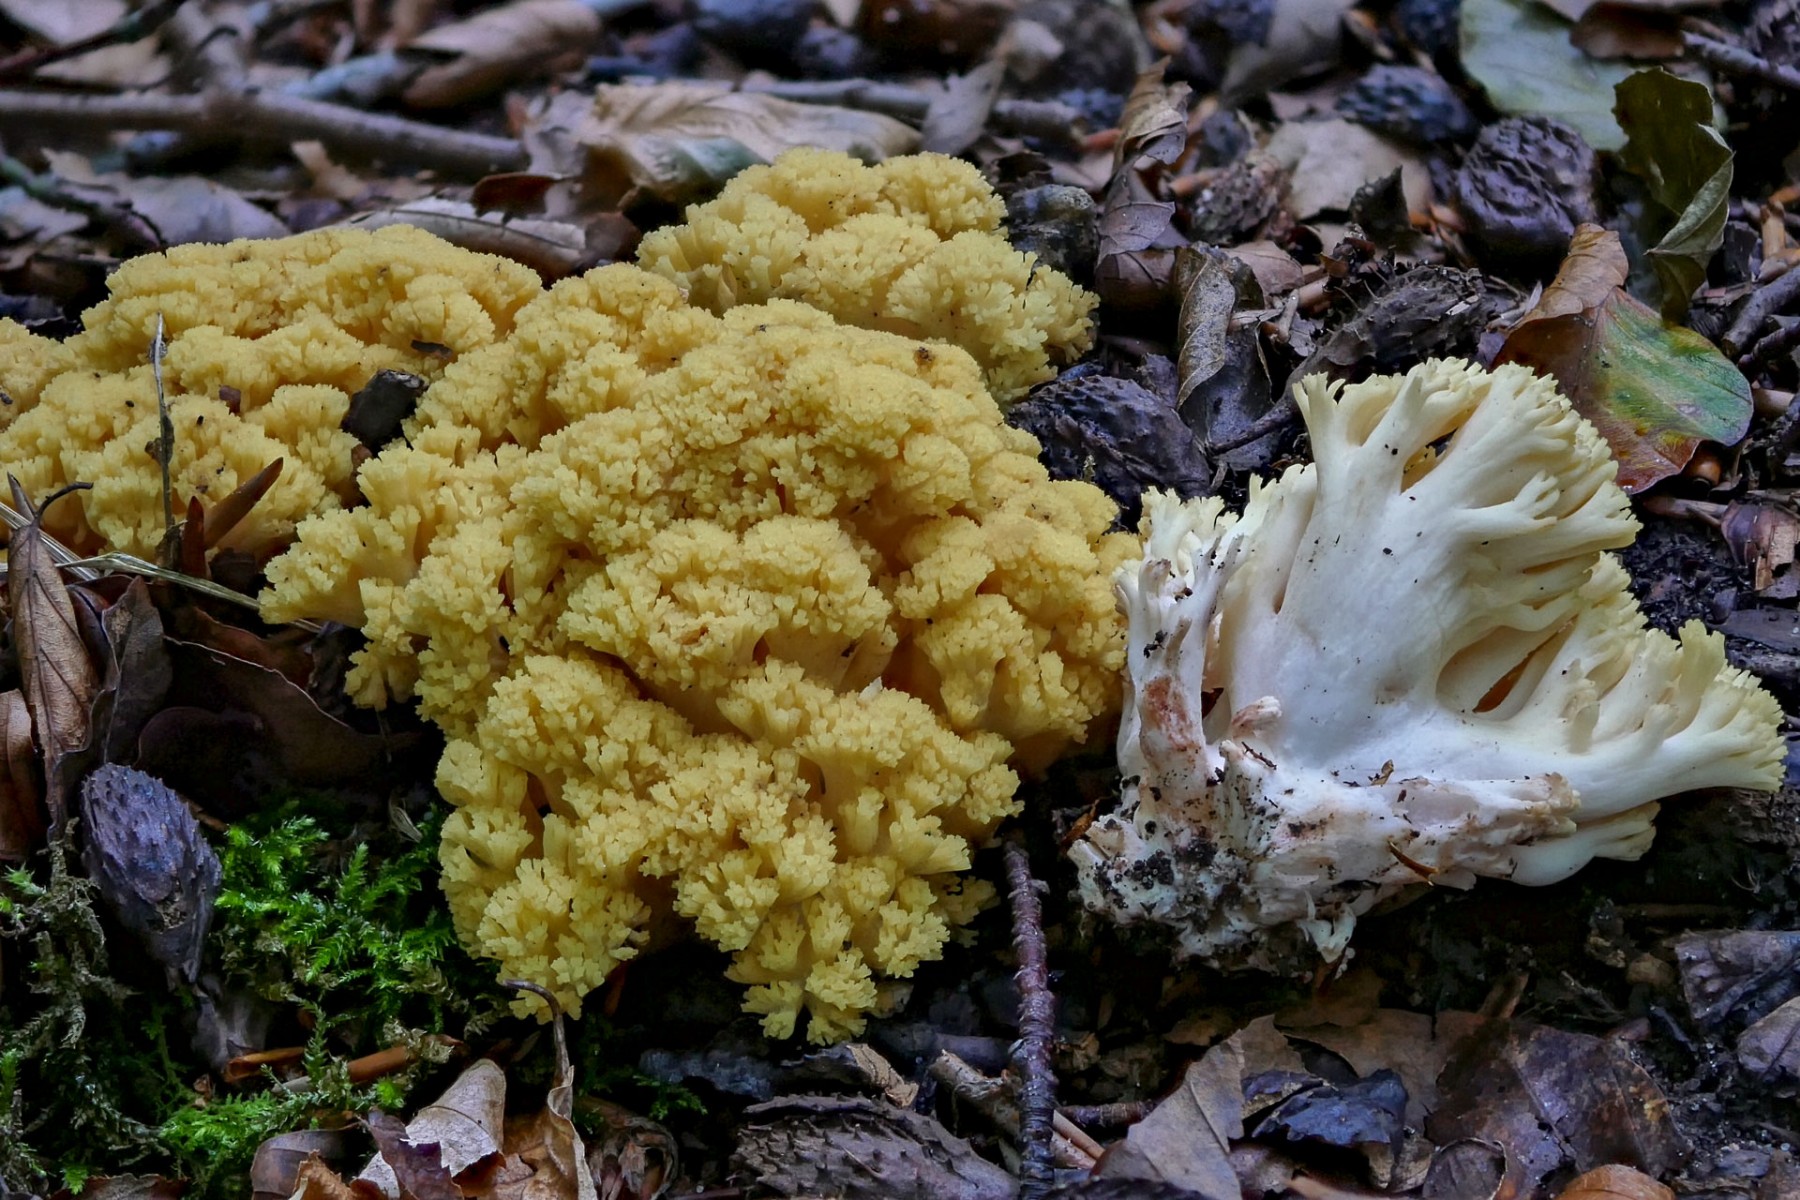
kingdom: Fungi
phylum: Basidiomycota
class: Agaricomycetes
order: Gomphales
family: Gomphaceae
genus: Ramaria
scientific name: Ramaria sanguinea
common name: blodplettet koralsvamp
